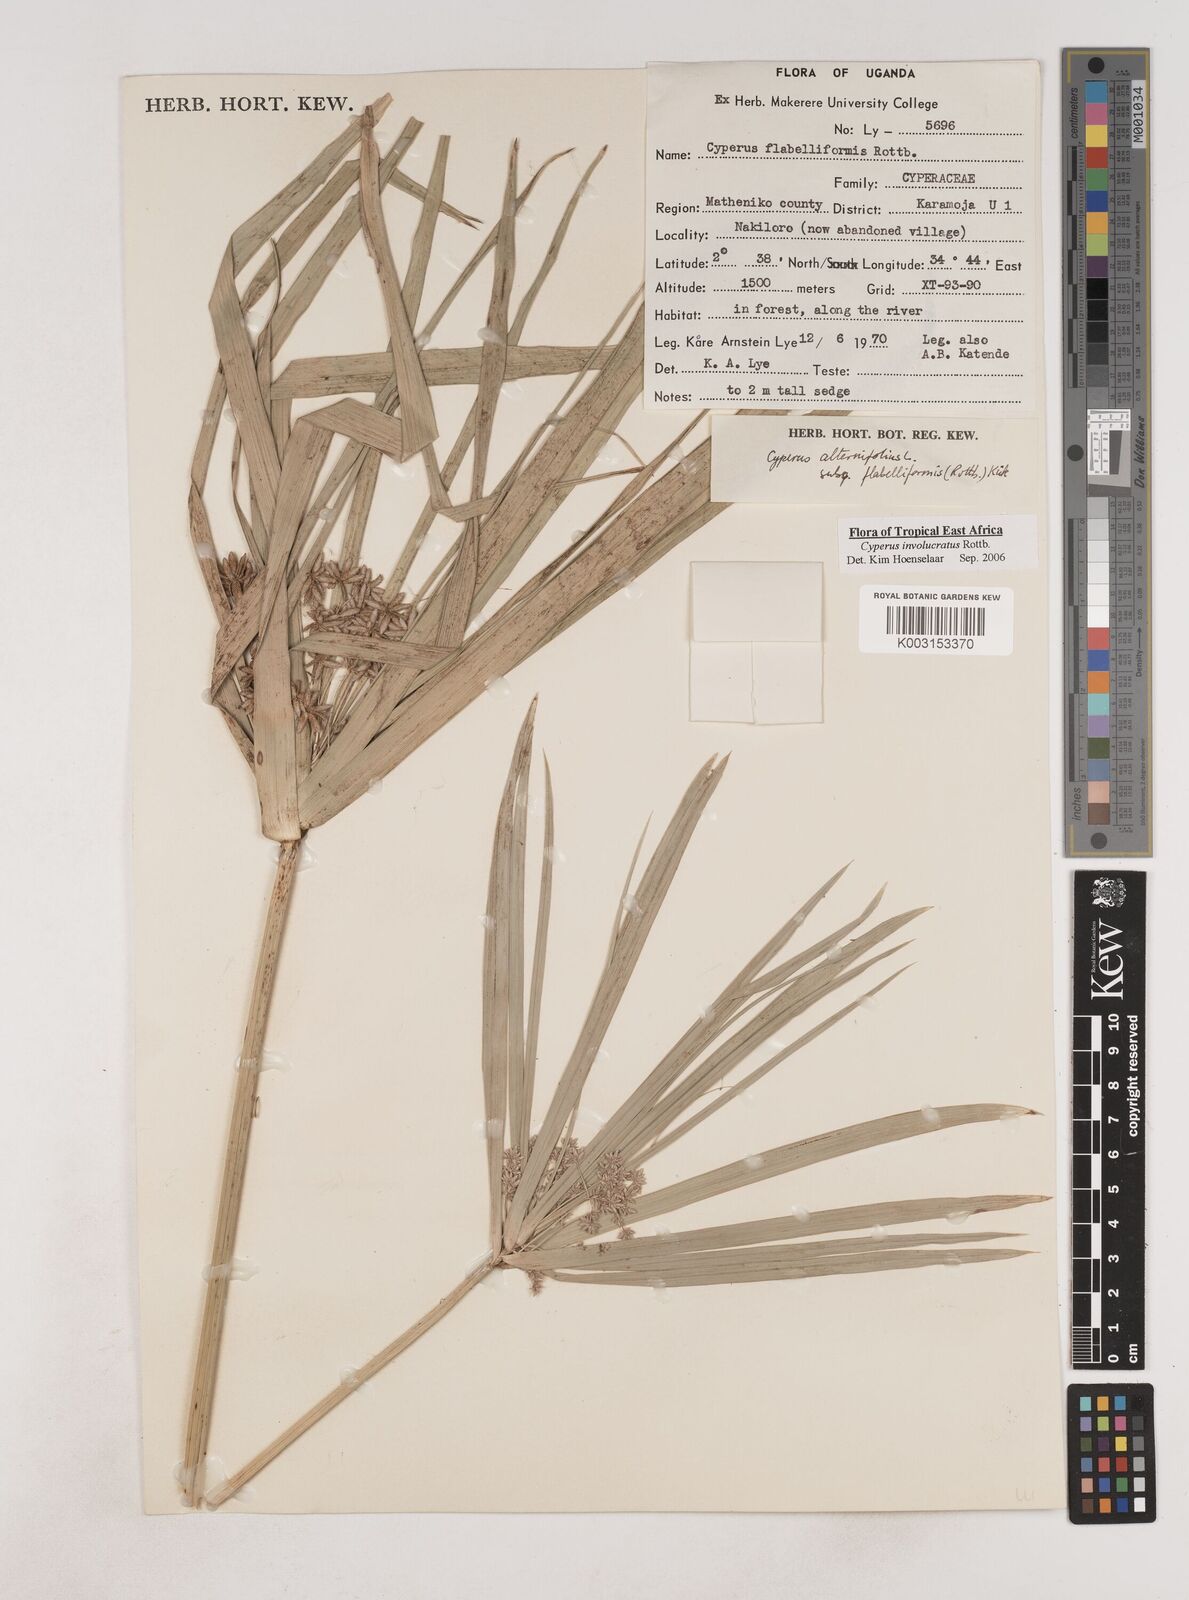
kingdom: Plantae
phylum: Tracheophyta
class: Liliopsida
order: Poales
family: Cyperaceae
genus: Cyperus
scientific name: Cyperus alternifolius
